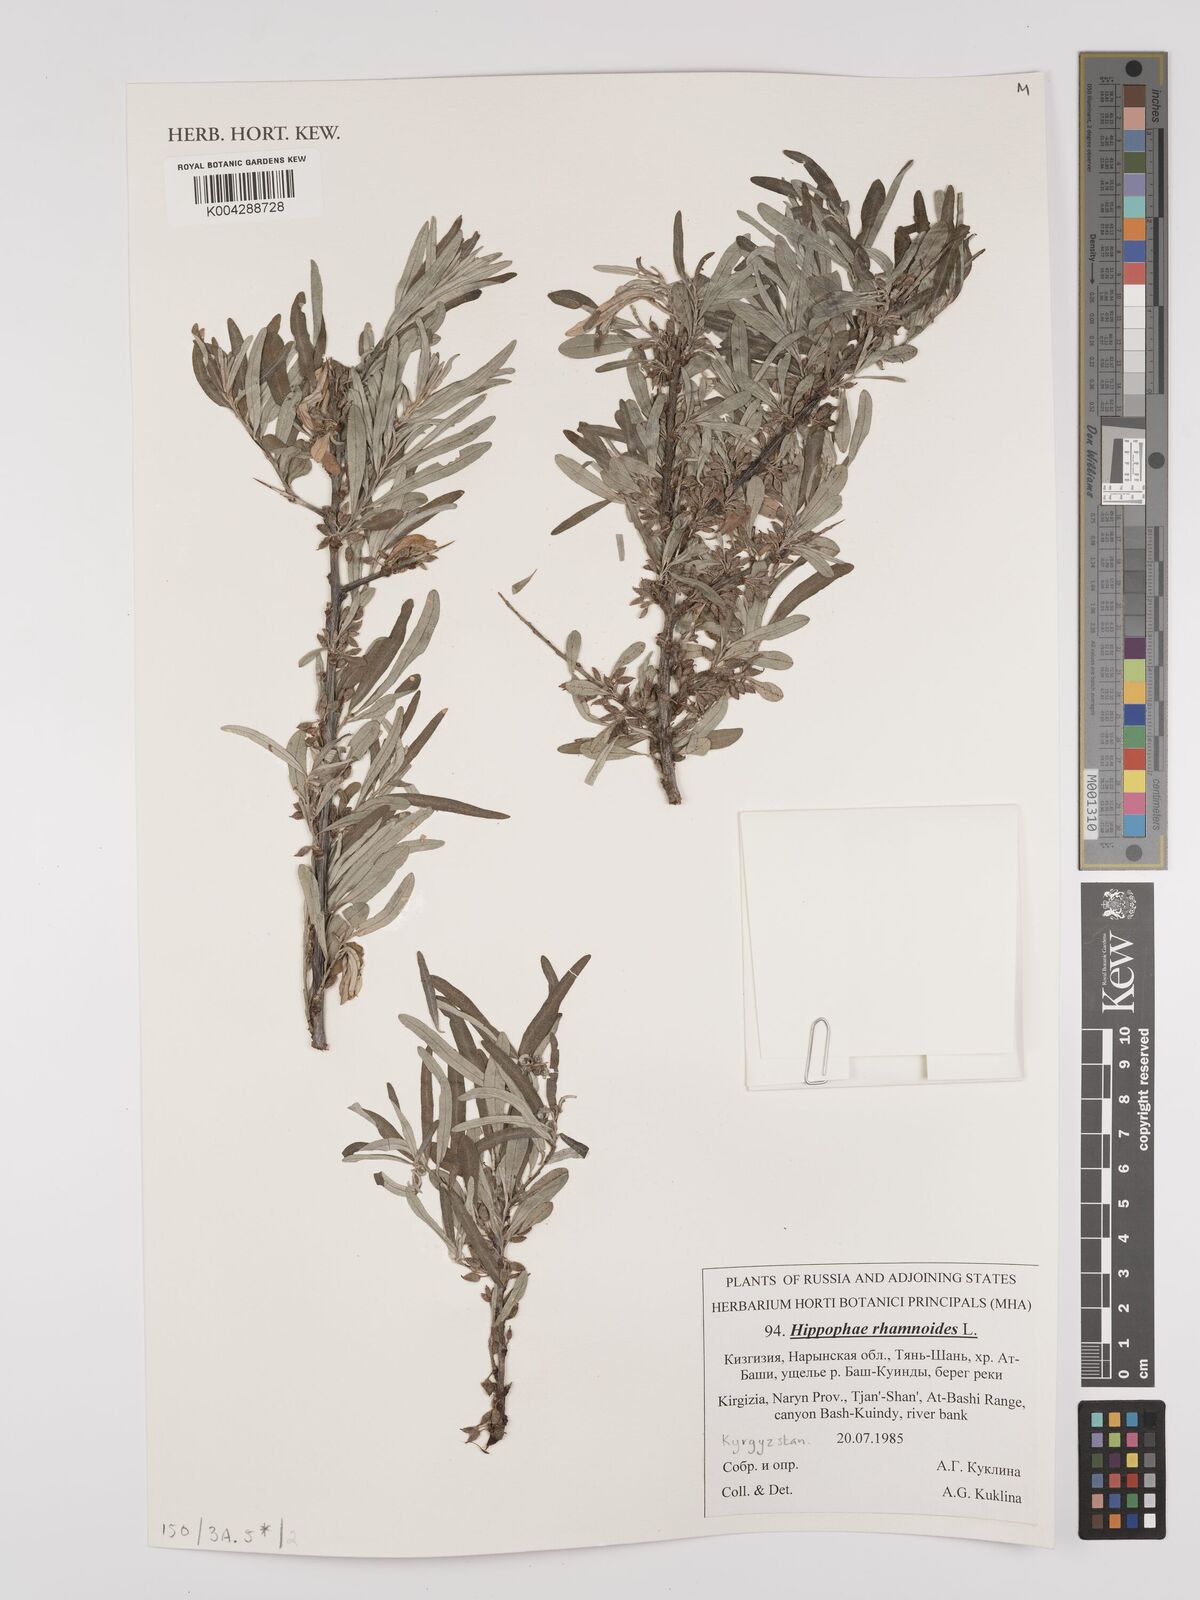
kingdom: Plantae
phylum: Tracheophyta
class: Magnoliopsida
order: Rosales
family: Elaeagnaceae
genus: Hippophae
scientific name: Hippophae rhamnoides
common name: Sea-buckthorn
